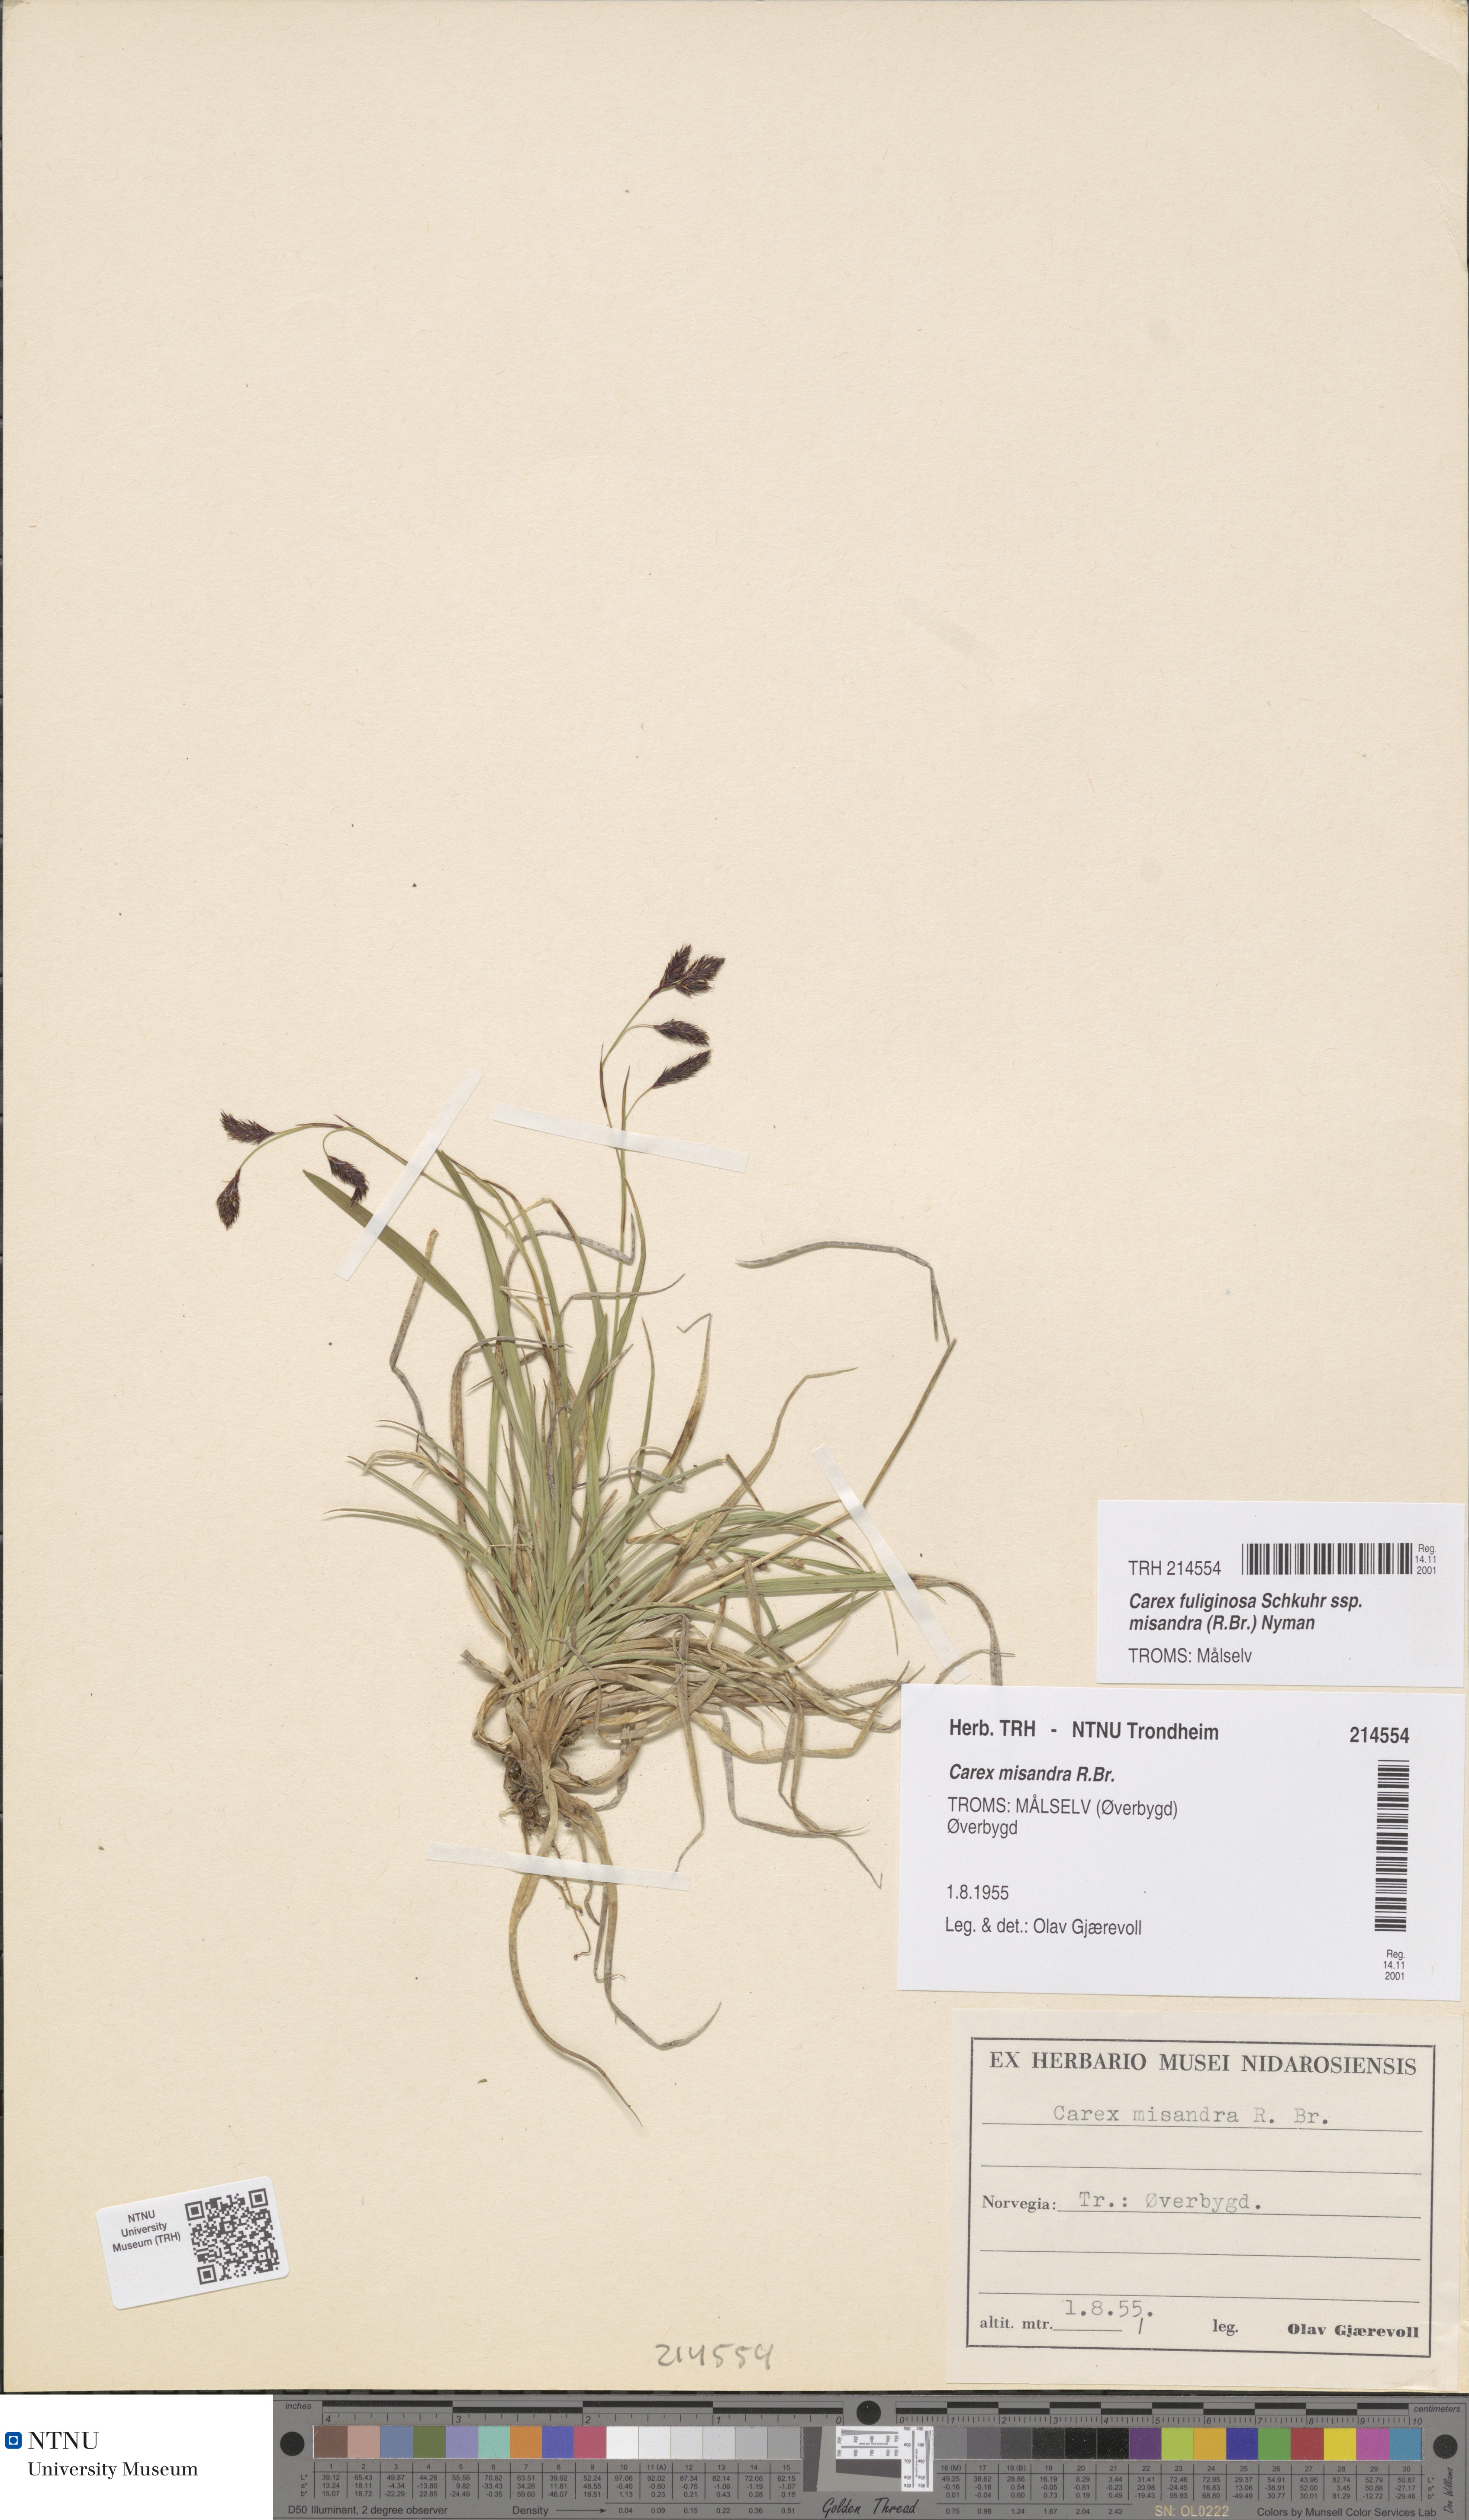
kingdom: Plantae
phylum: Tracheophyta
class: Liliopsida
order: Poales
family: Cyperaceae
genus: Carex
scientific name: Carex fuliginosa
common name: Few-flowered sedge
